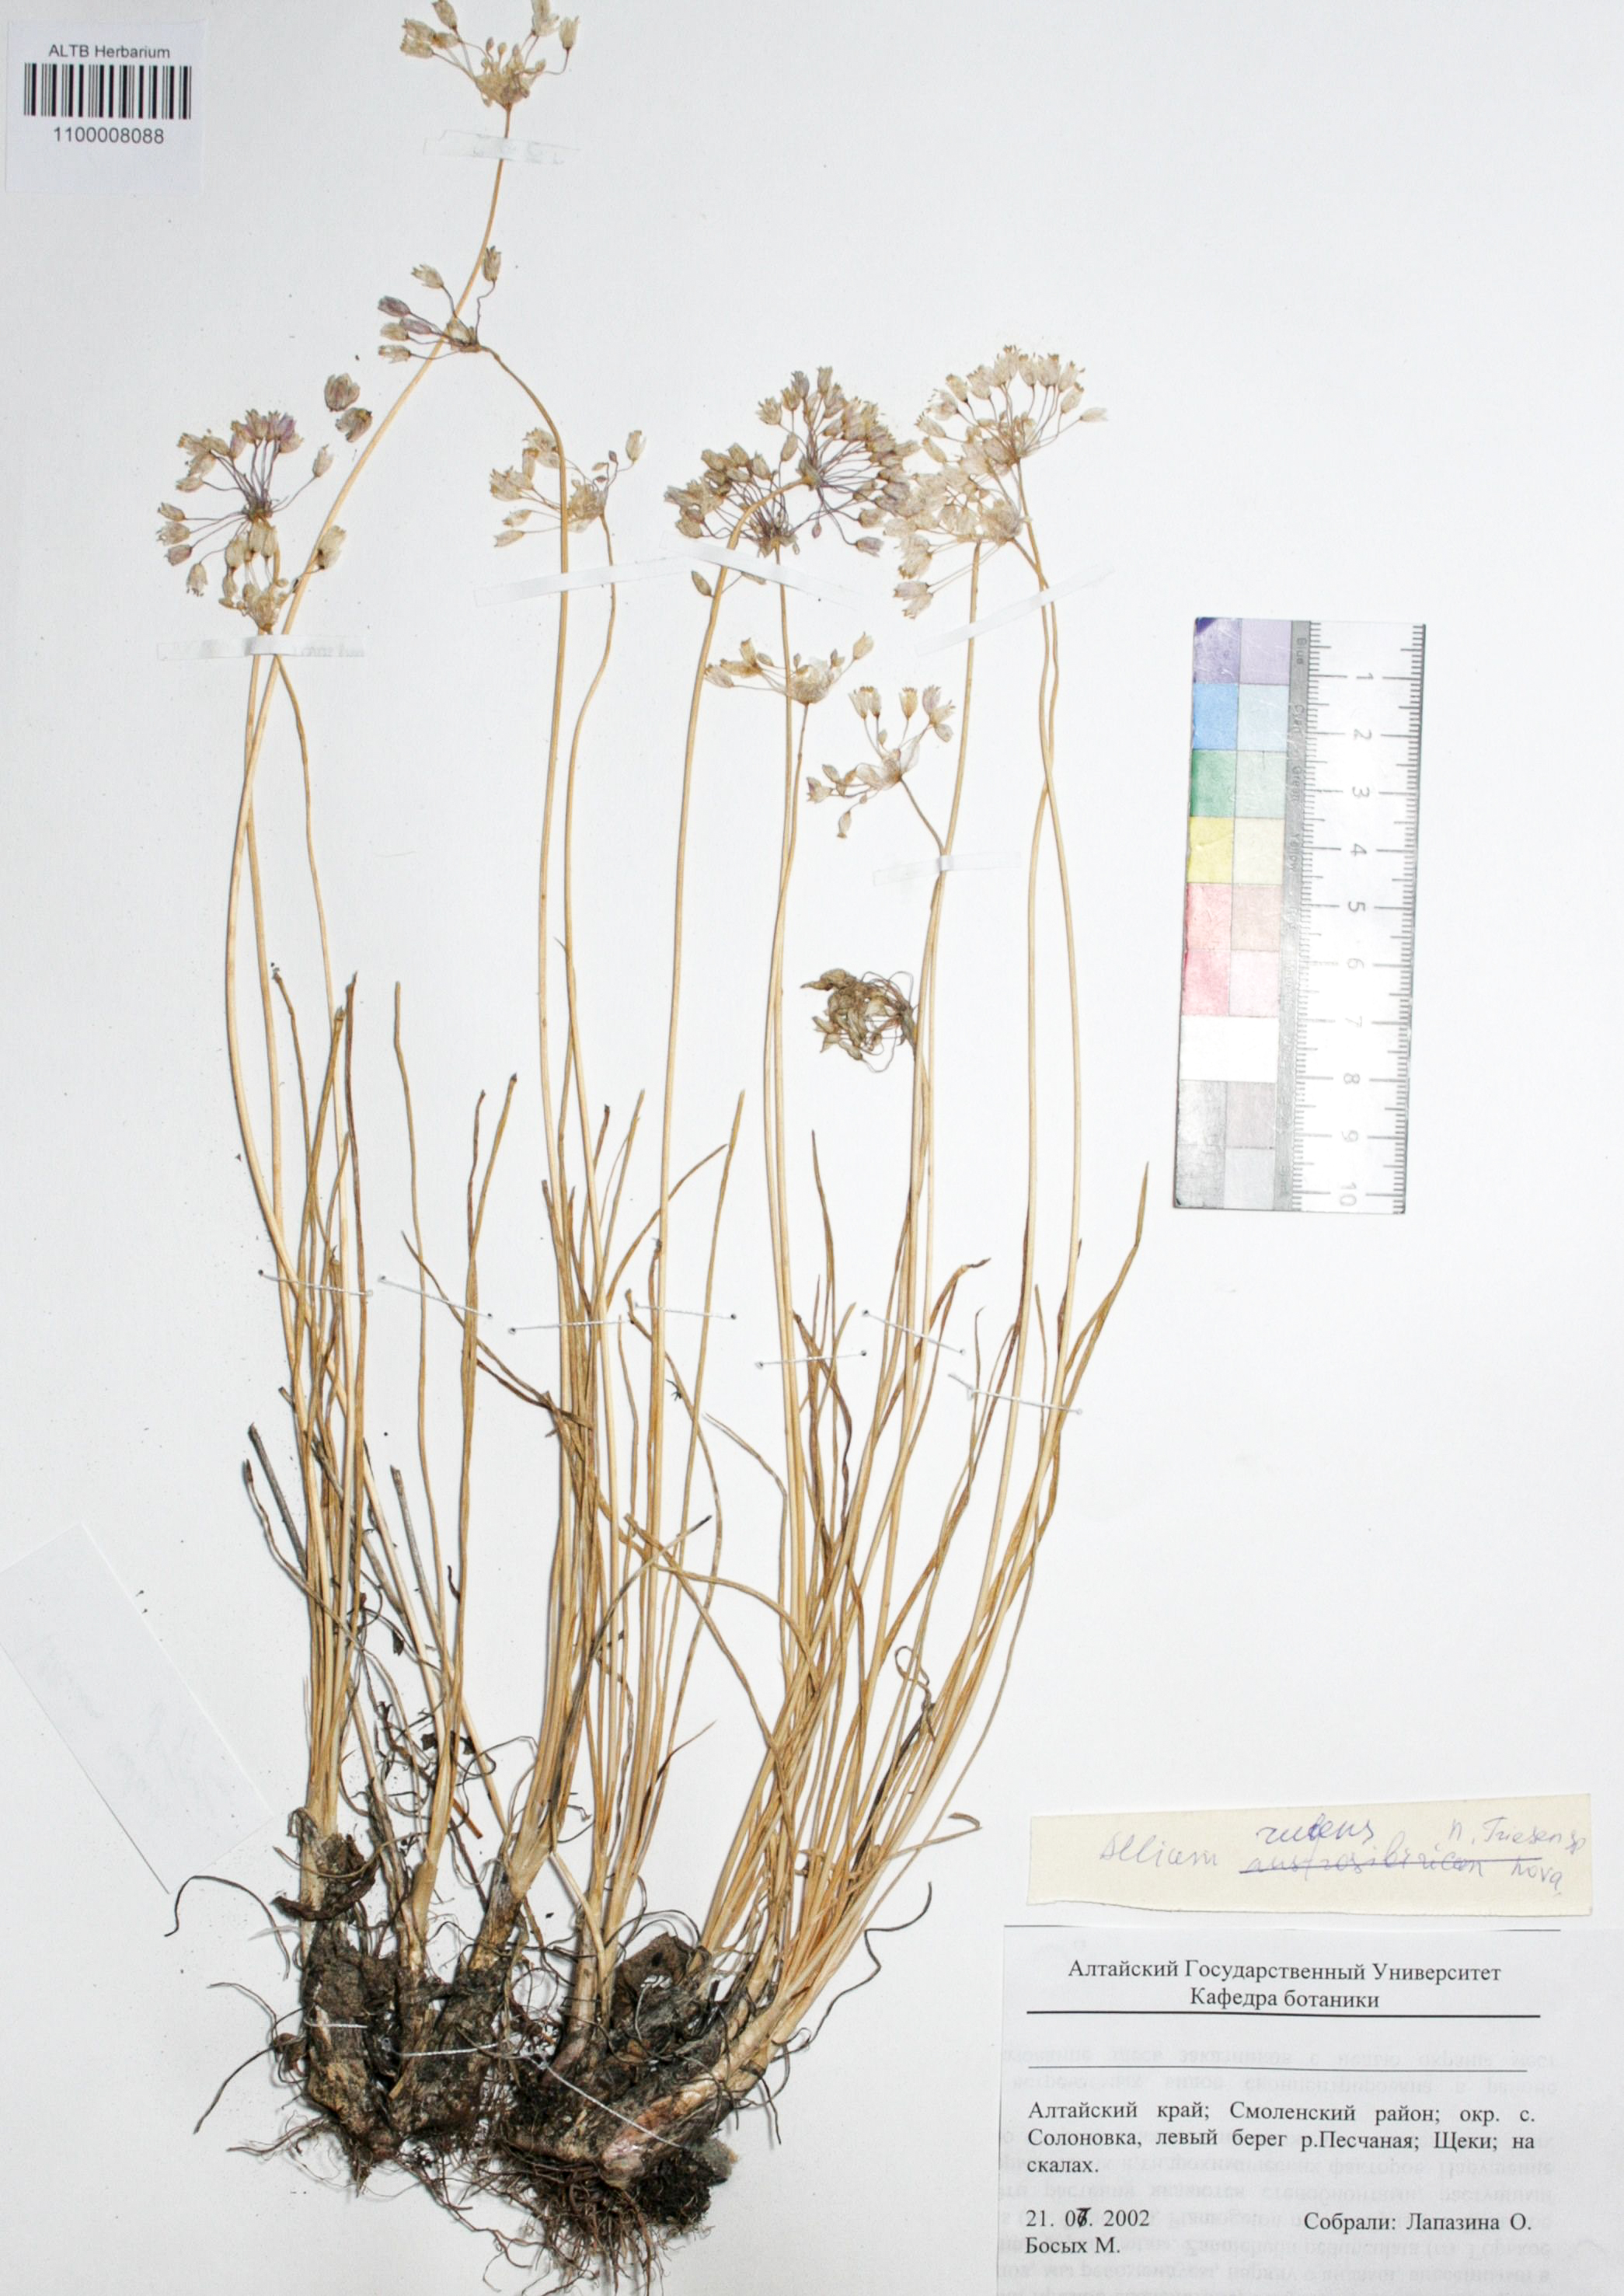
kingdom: Plantae
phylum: Tracheophyta
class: Liliopsida
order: Asparagales
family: Amaryllidaceae
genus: Allium
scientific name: Allium rubens
